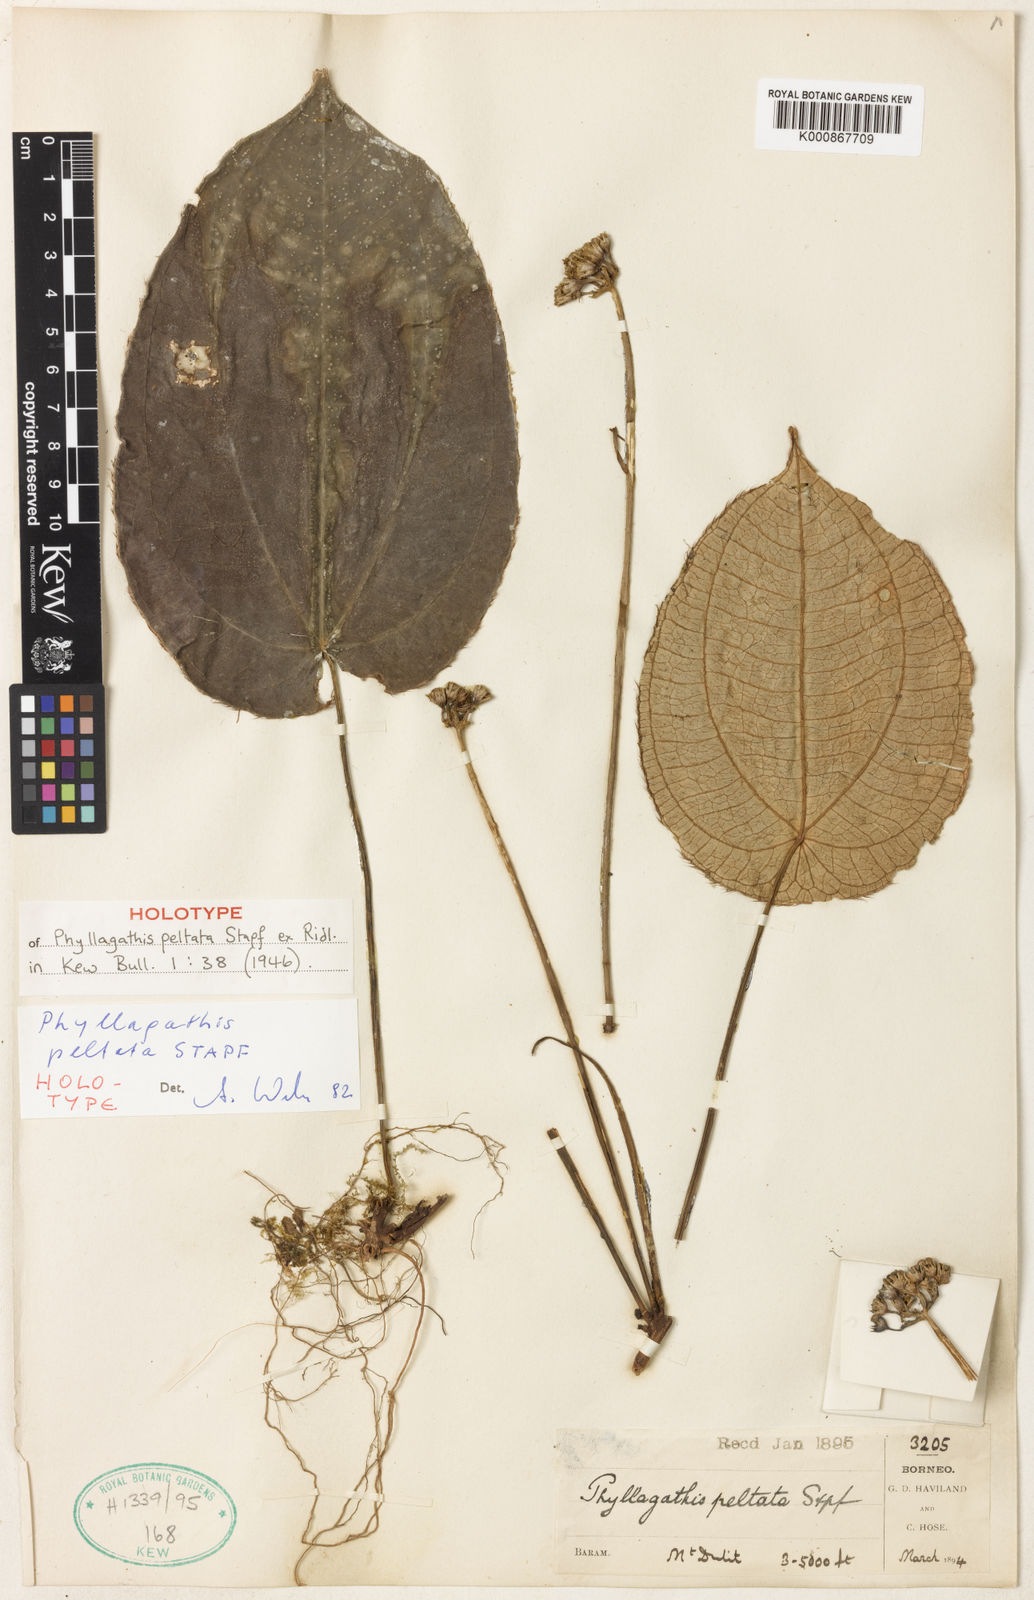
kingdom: Plantae
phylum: Tracheophyta
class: Magnoliopsida
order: Myrtales
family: Melastomataceae
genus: Phyllagathis
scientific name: Phyllagathis peltata
